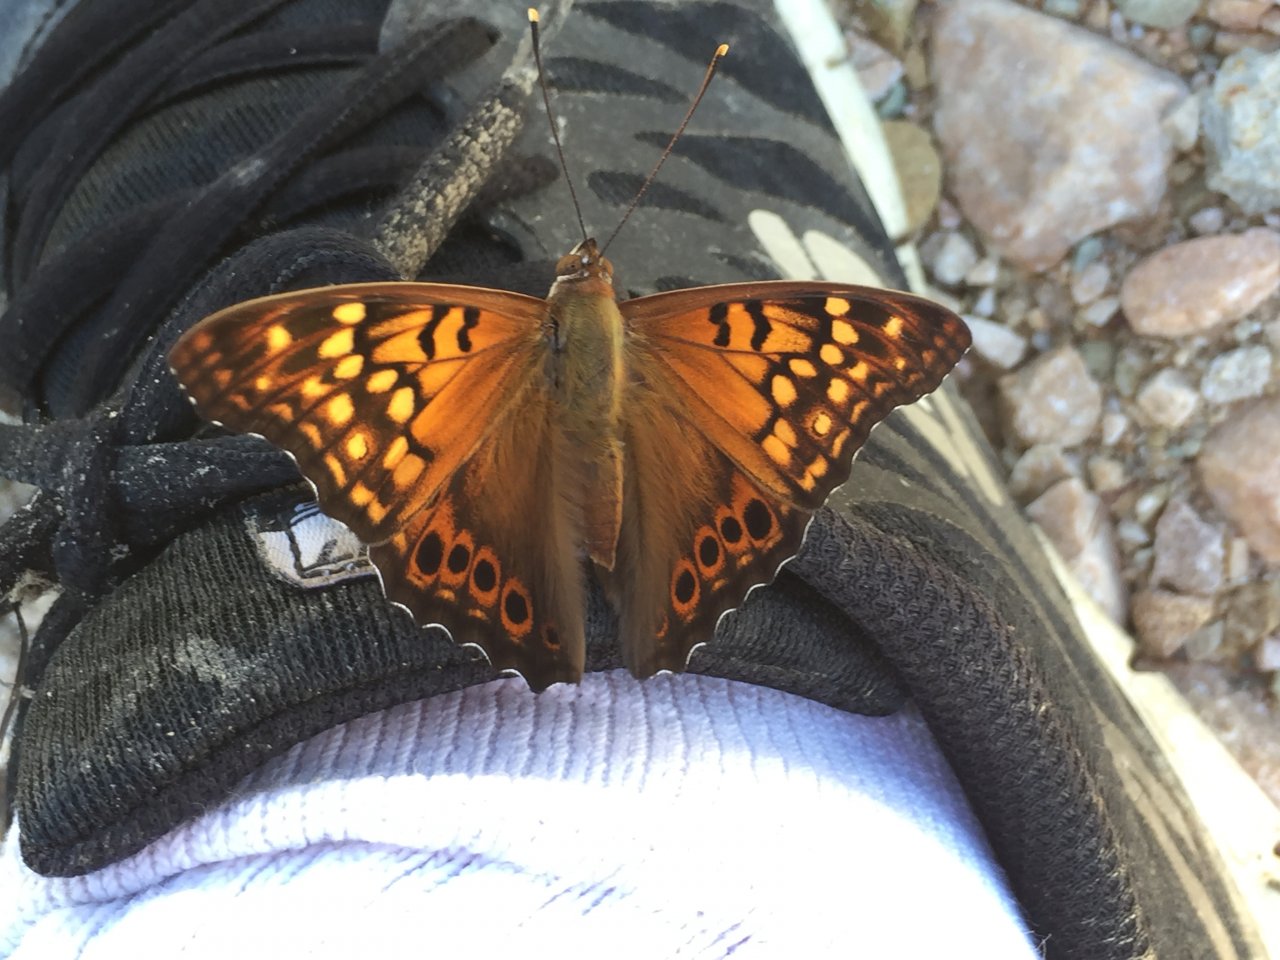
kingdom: Animalia
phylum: Arthropoda
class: Insecta
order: Lepidoptera
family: Nymphalidae
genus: Asterocampa
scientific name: Asterocampa clyton
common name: Tawny Emperor
